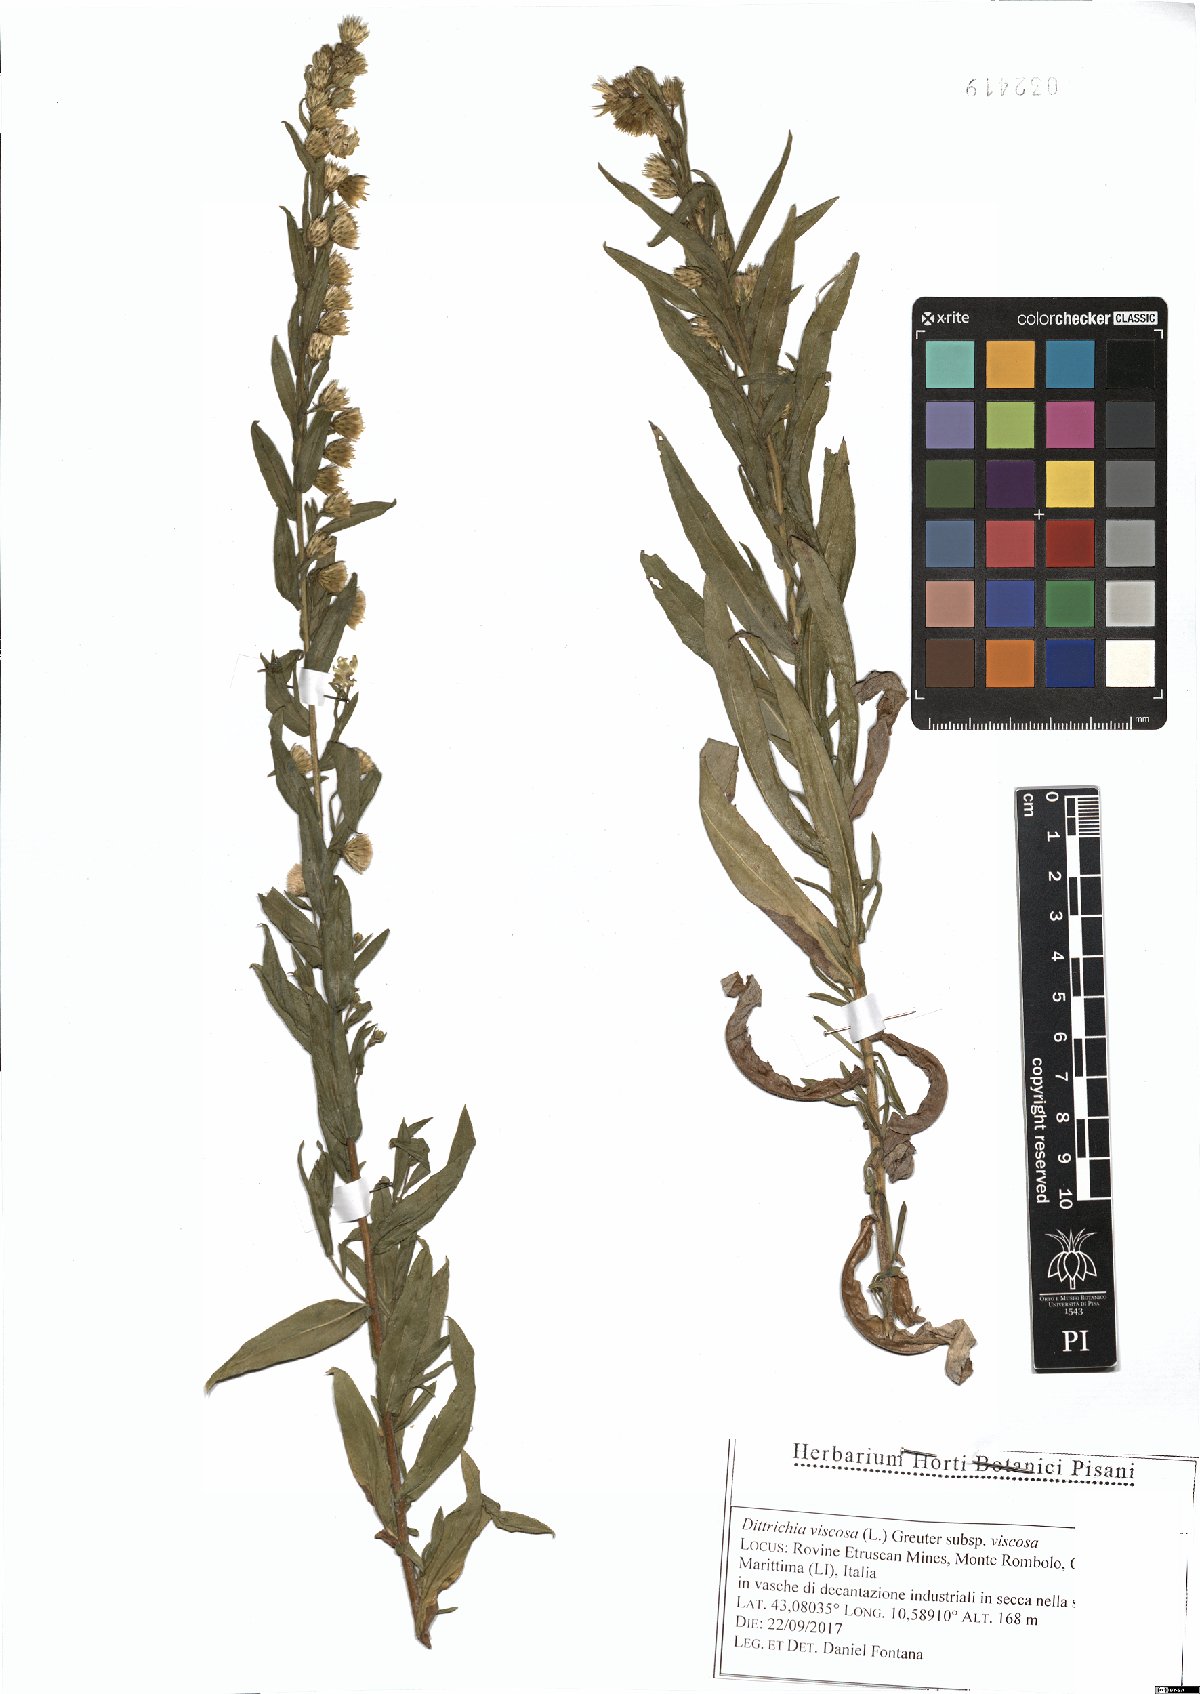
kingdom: Plantae
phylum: Tracheophyta
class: Magnoliopsida
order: Asterales
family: Asteraceae
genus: Dittrichia
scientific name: Dittrichia viscosa
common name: Woody fleabane
